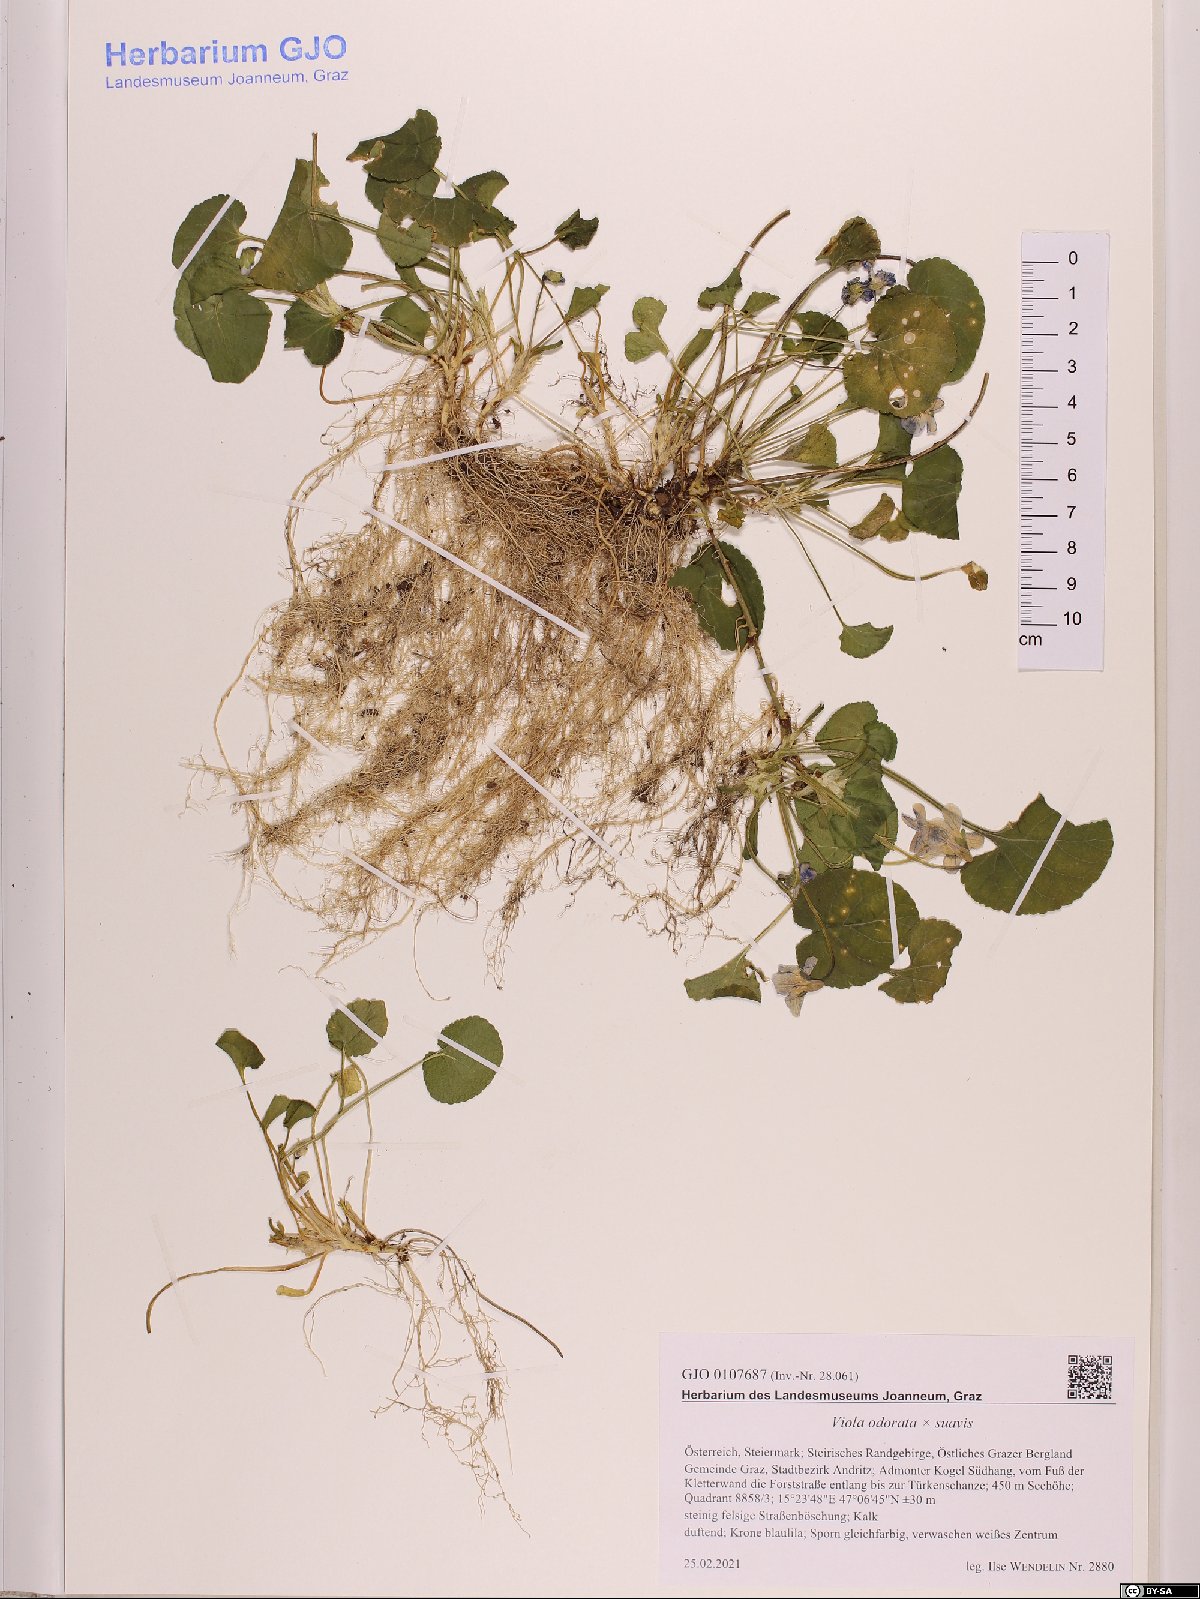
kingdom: Plantae
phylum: Tracheophyta
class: Magnoliopsida
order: Malpighiales
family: Violaceae
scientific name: Violaceae
